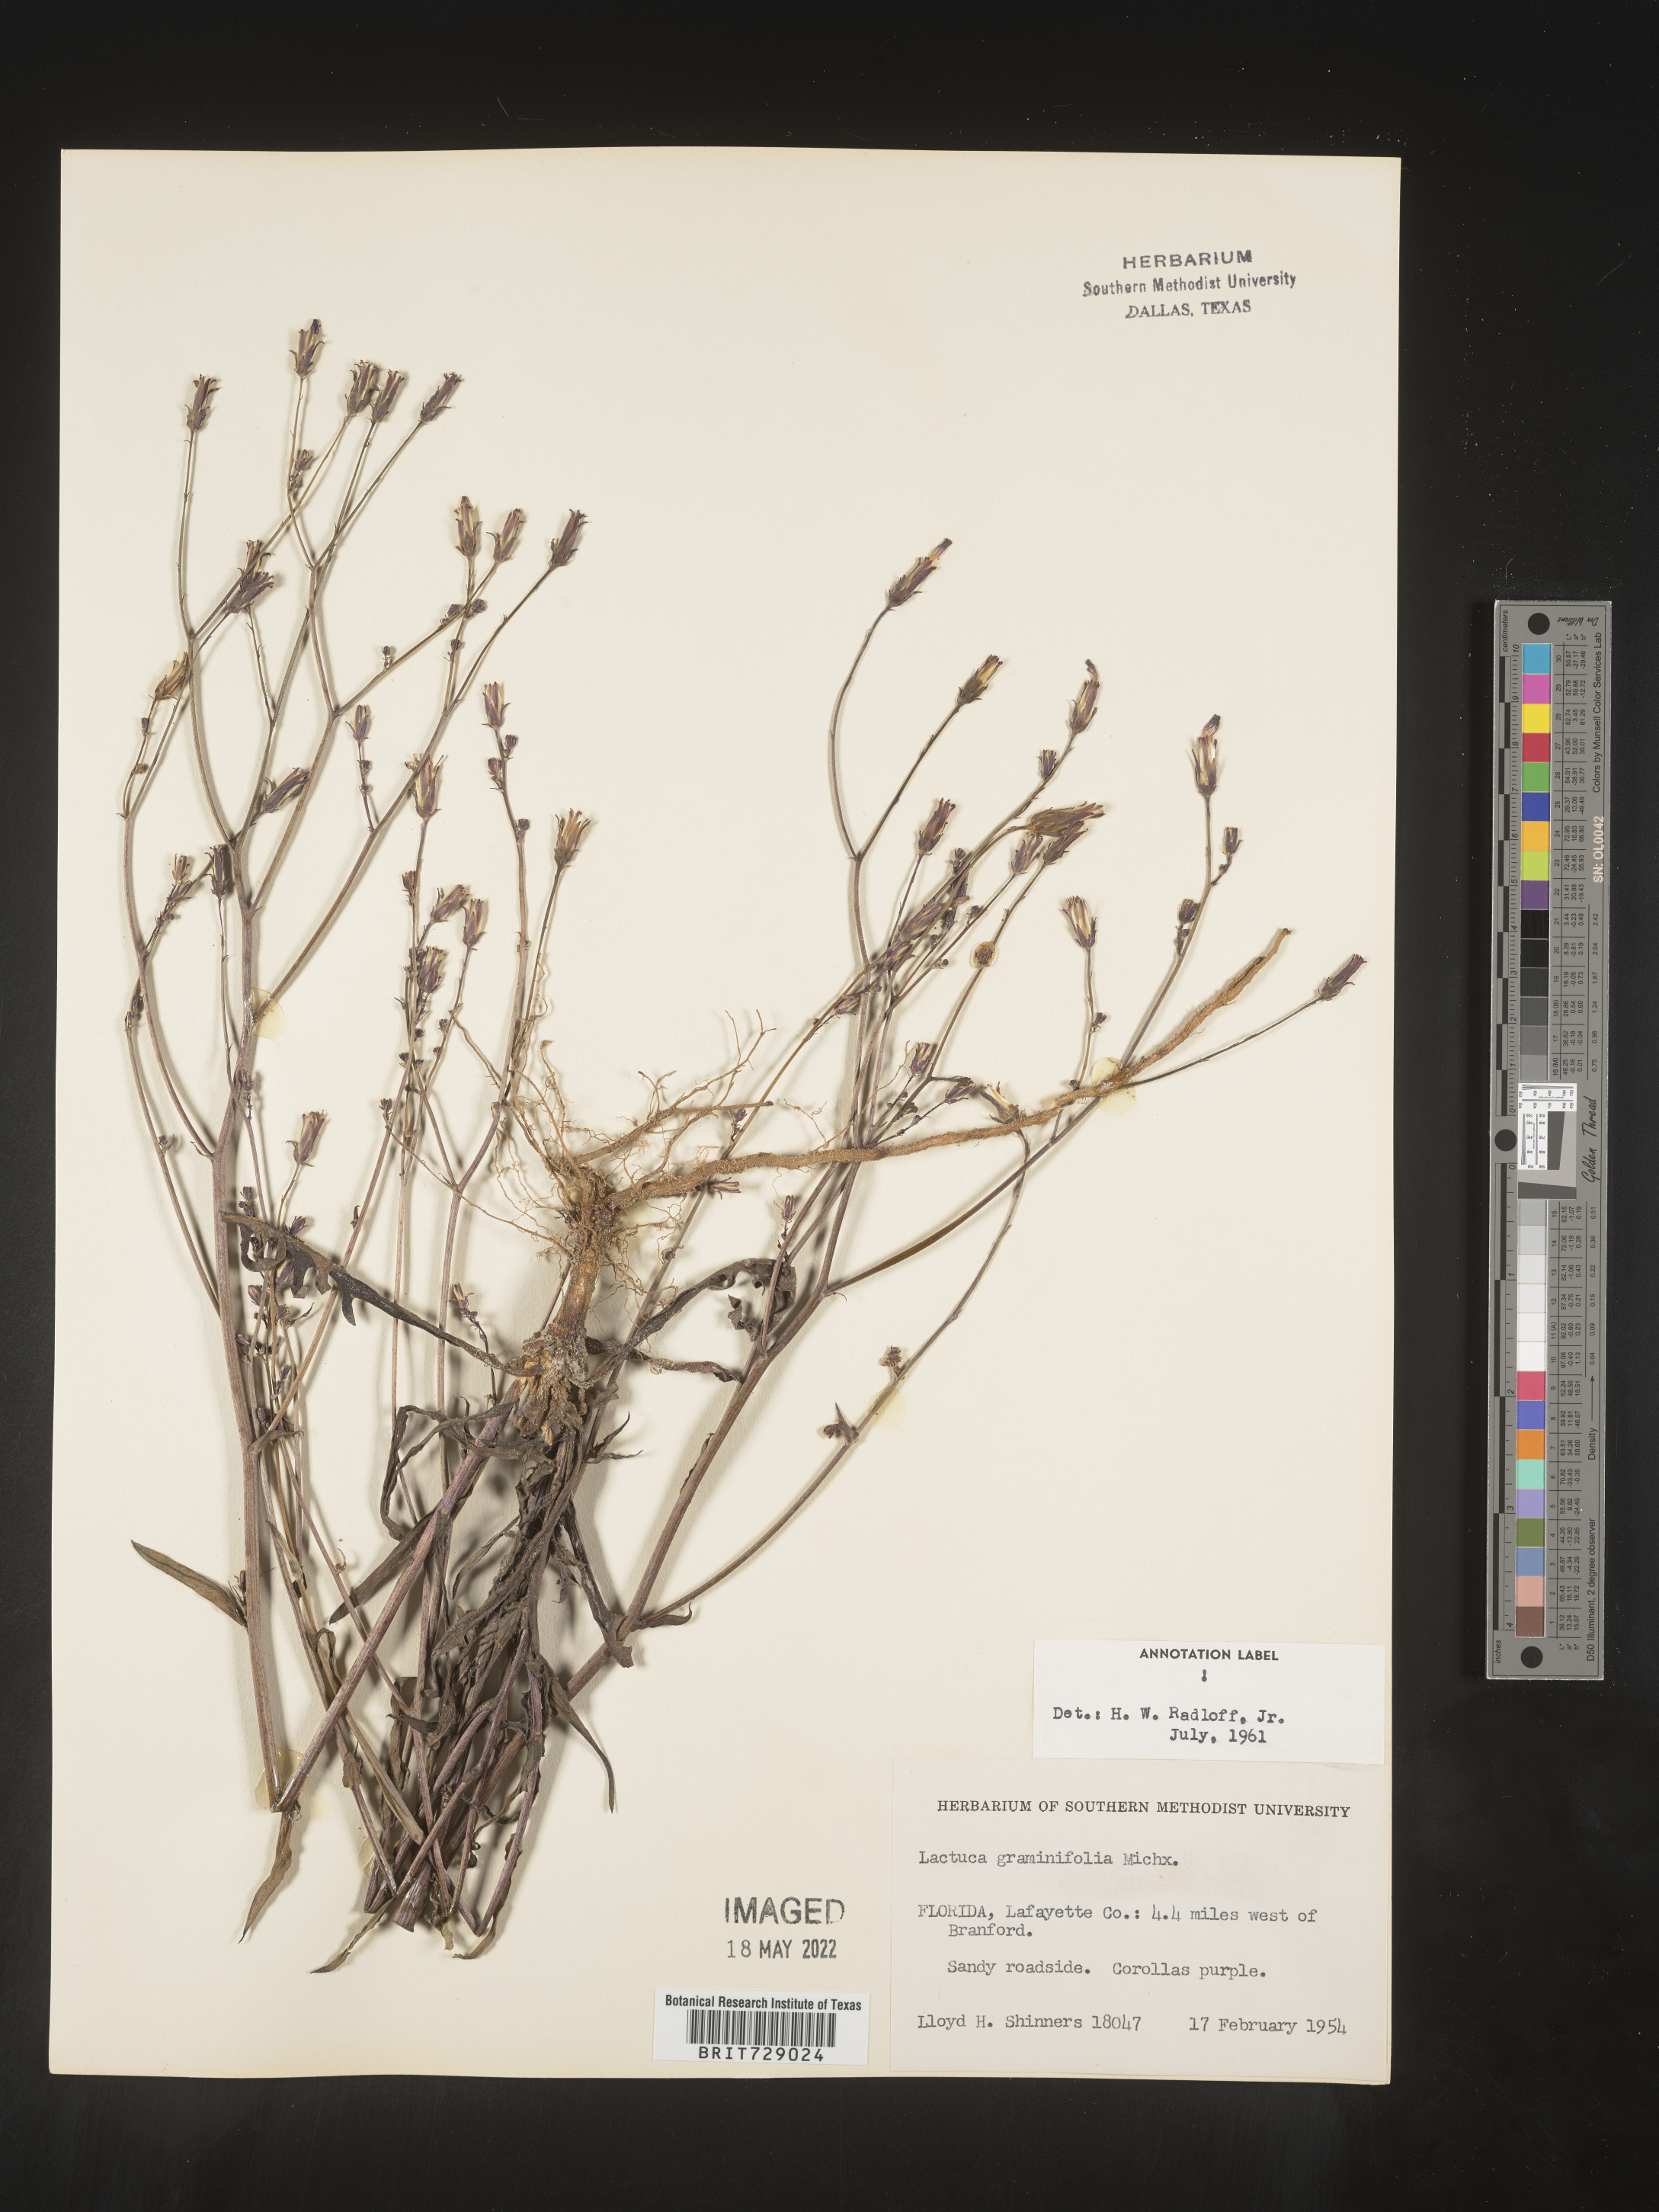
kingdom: Plantae
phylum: Tracheophyta
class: Magnoliopsida
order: Asterales
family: Asteraceae
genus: Lactuca
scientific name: Lactuca graminifolia
